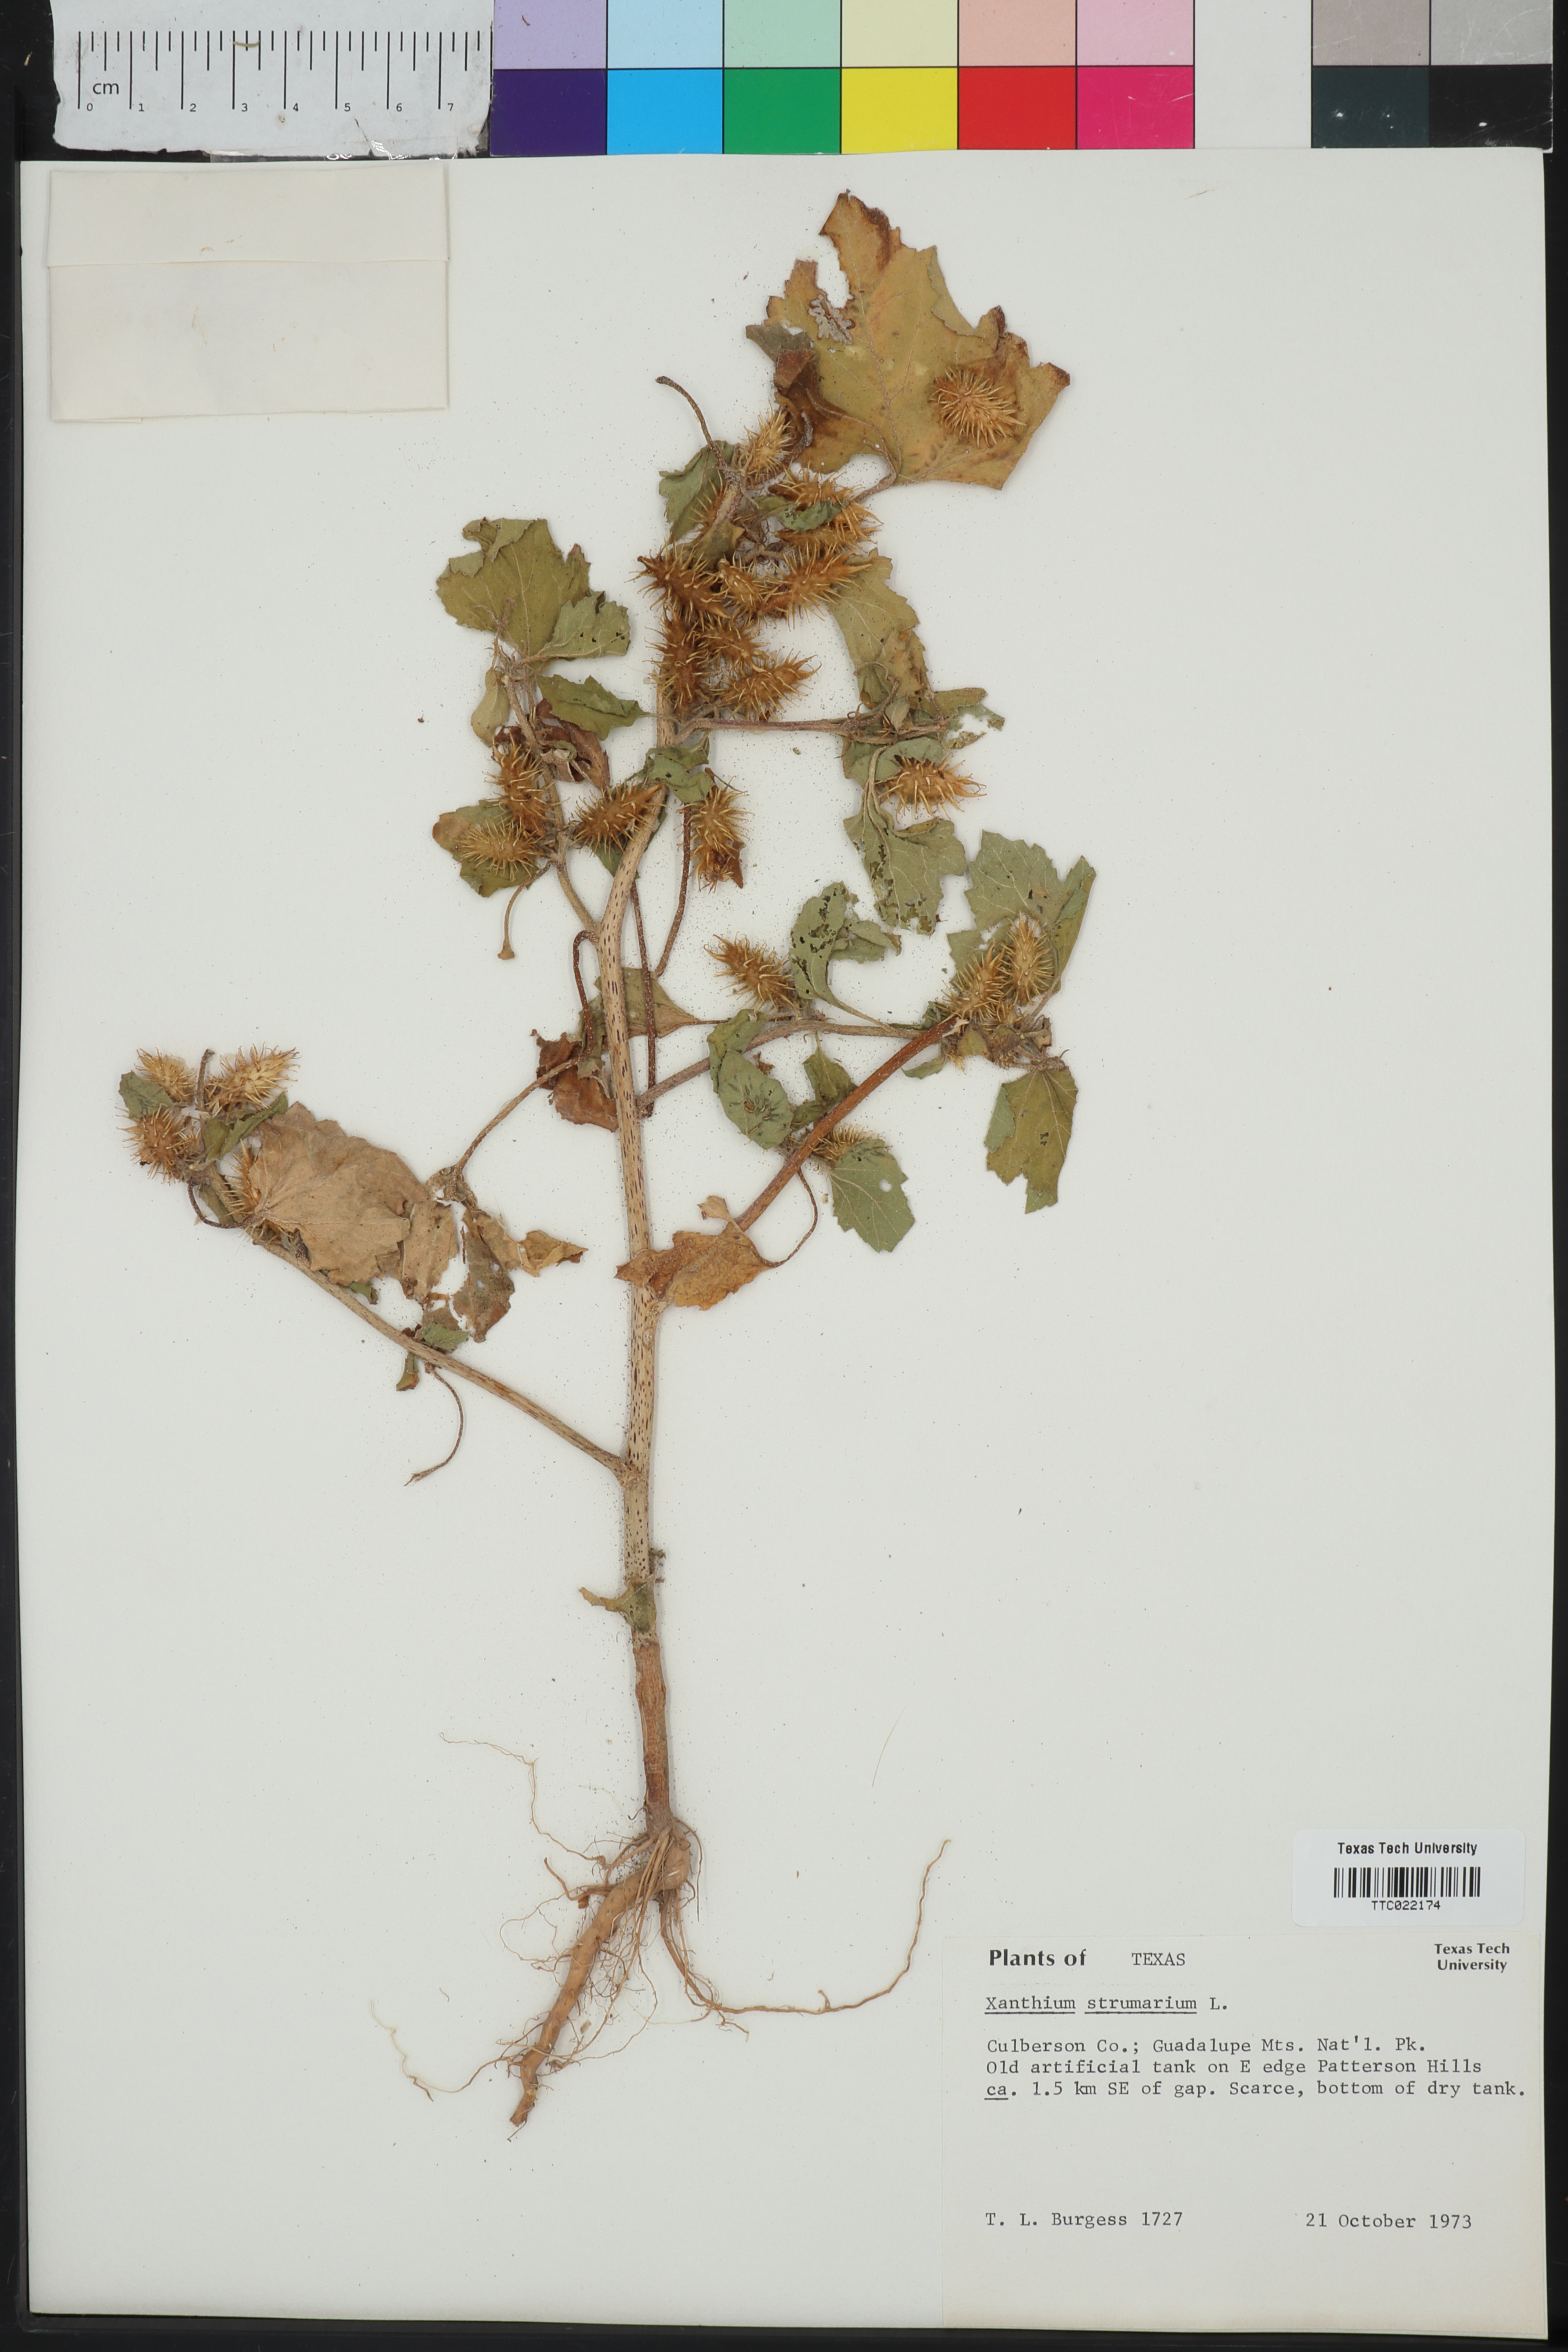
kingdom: Plantae
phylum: Tracheophyta
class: Magnoliopsida
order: Asterales
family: Asteraceae
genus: Xanthium
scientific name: Xanthium strumarium
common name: Rough cocklebur
